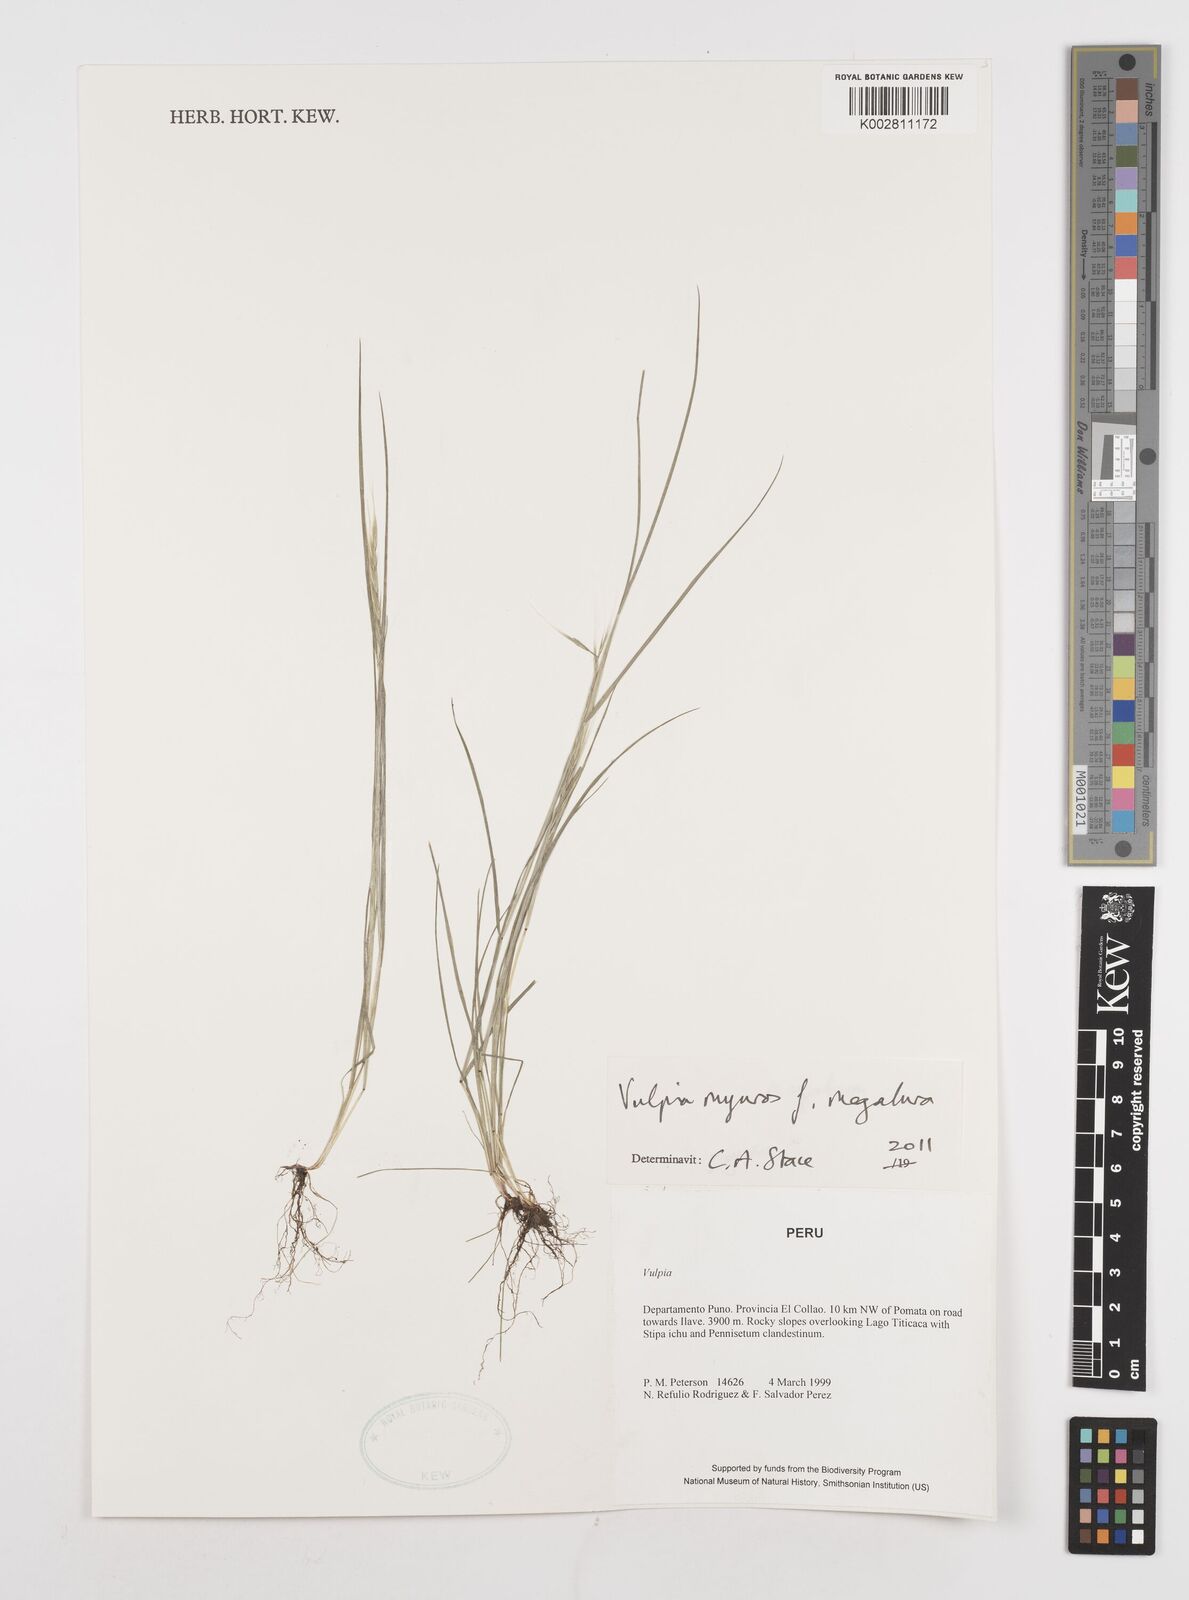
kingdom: Plantae
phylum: Tracheophyta
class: Liliopsida
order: Poales
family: Poaceae
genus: Festuca
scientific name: Festuca myuros
